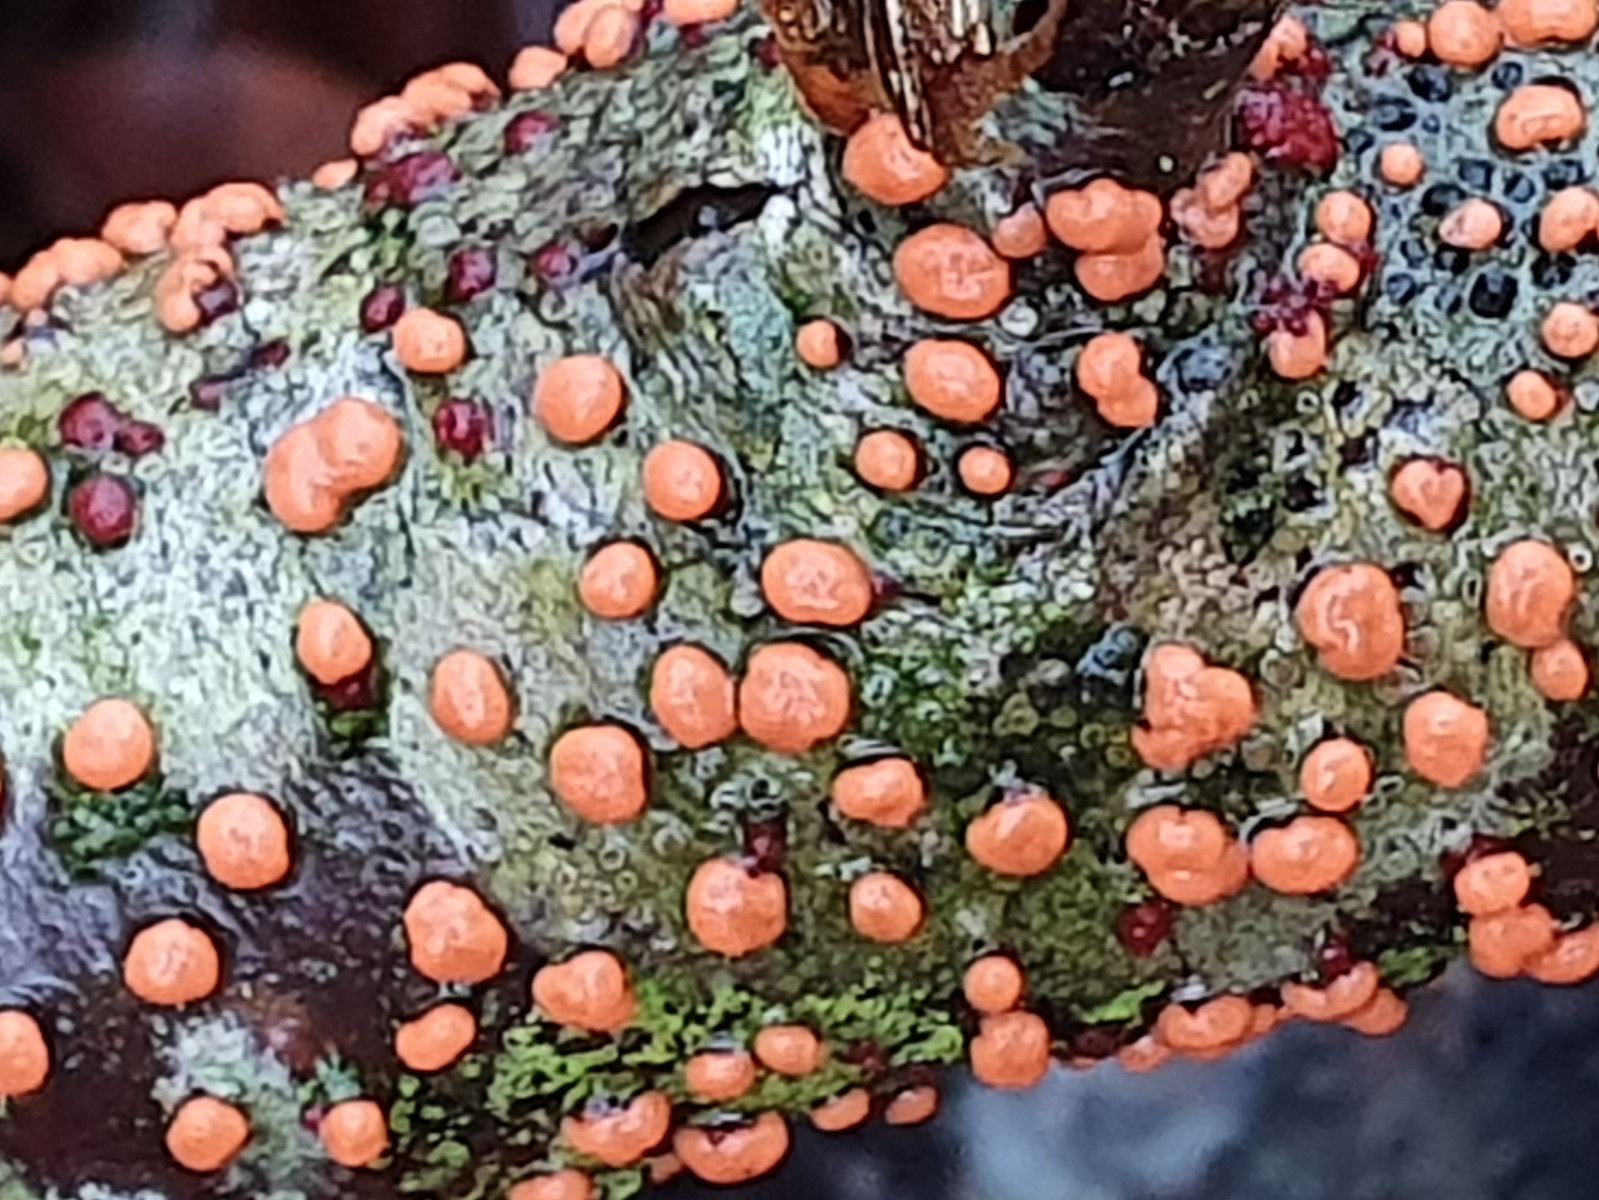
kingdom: Fungi
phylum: Ascomycota
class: Sordariomycetes
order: Hypocreales
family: Nectriaceae
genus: Nectria
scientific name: Nectria cinnabarina
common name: almindelig cinnobersvamp
